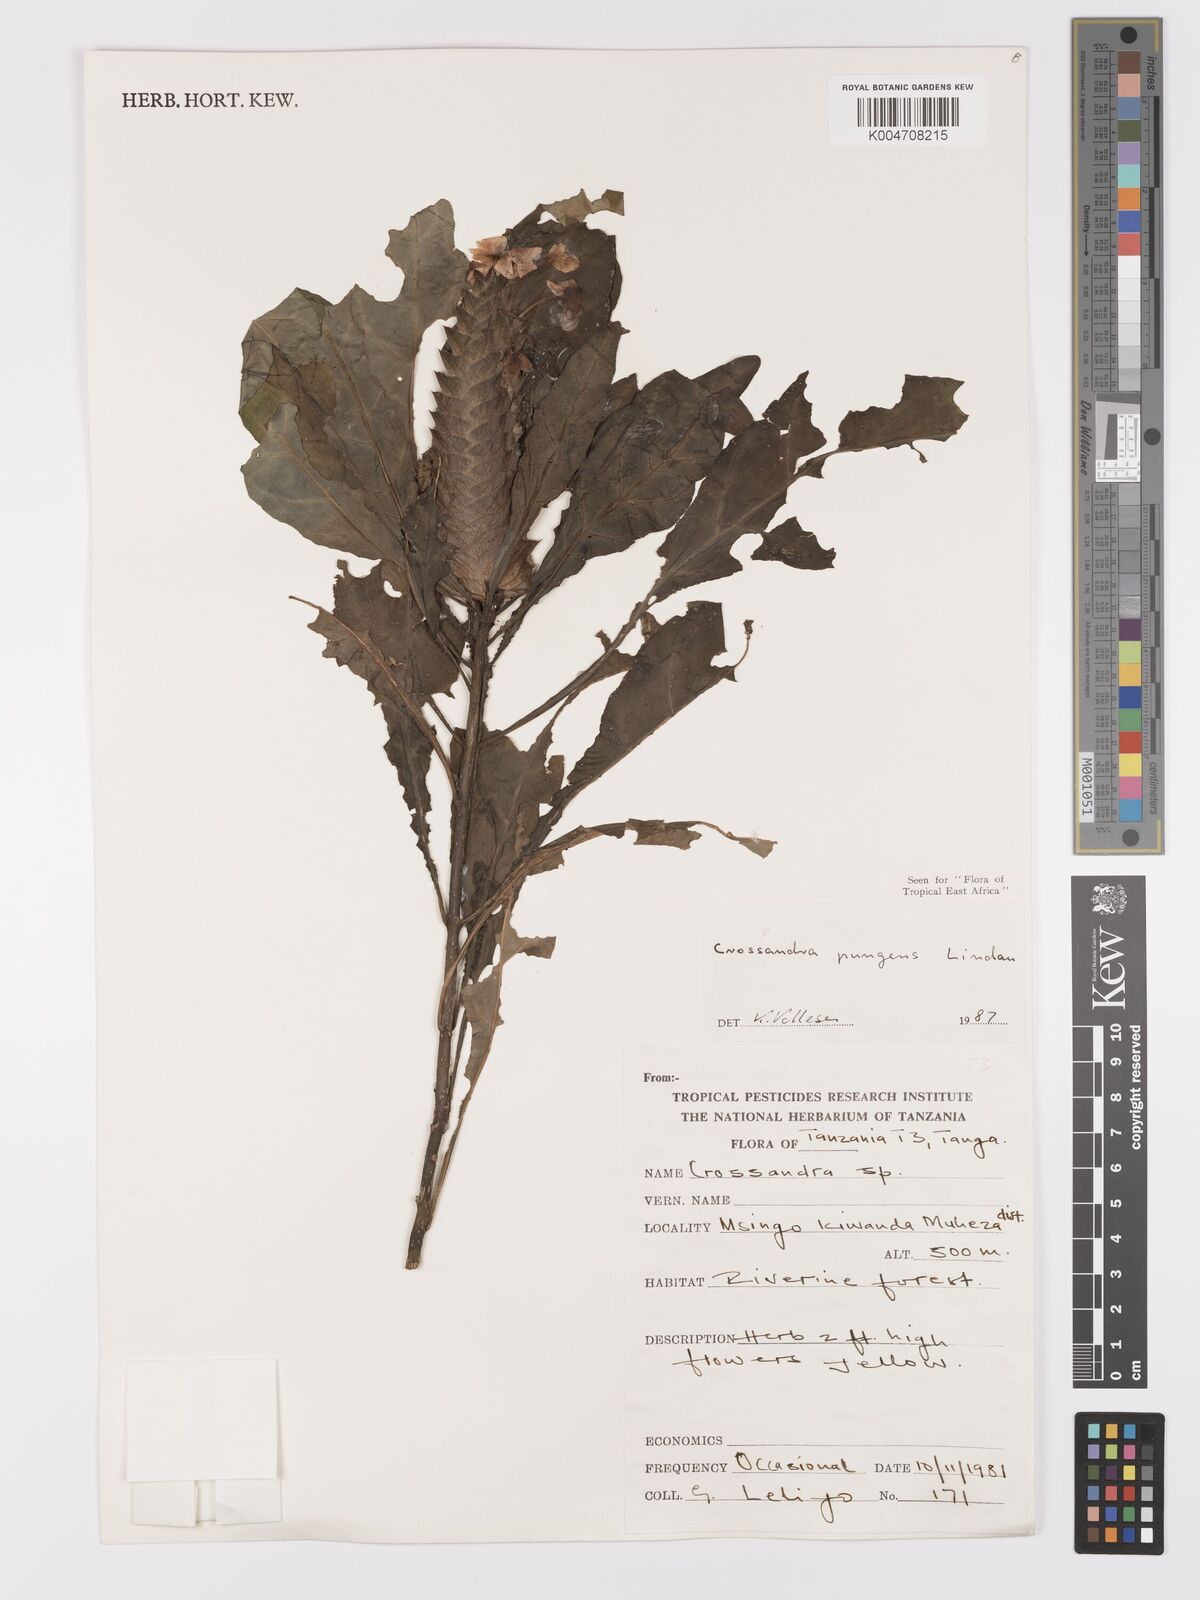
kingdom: Plantae
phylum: Tracheophyta
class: Magnoliopsida
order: Lamiales
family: Acanthaceae
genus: Crossandra
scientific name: Crossandra pungens
